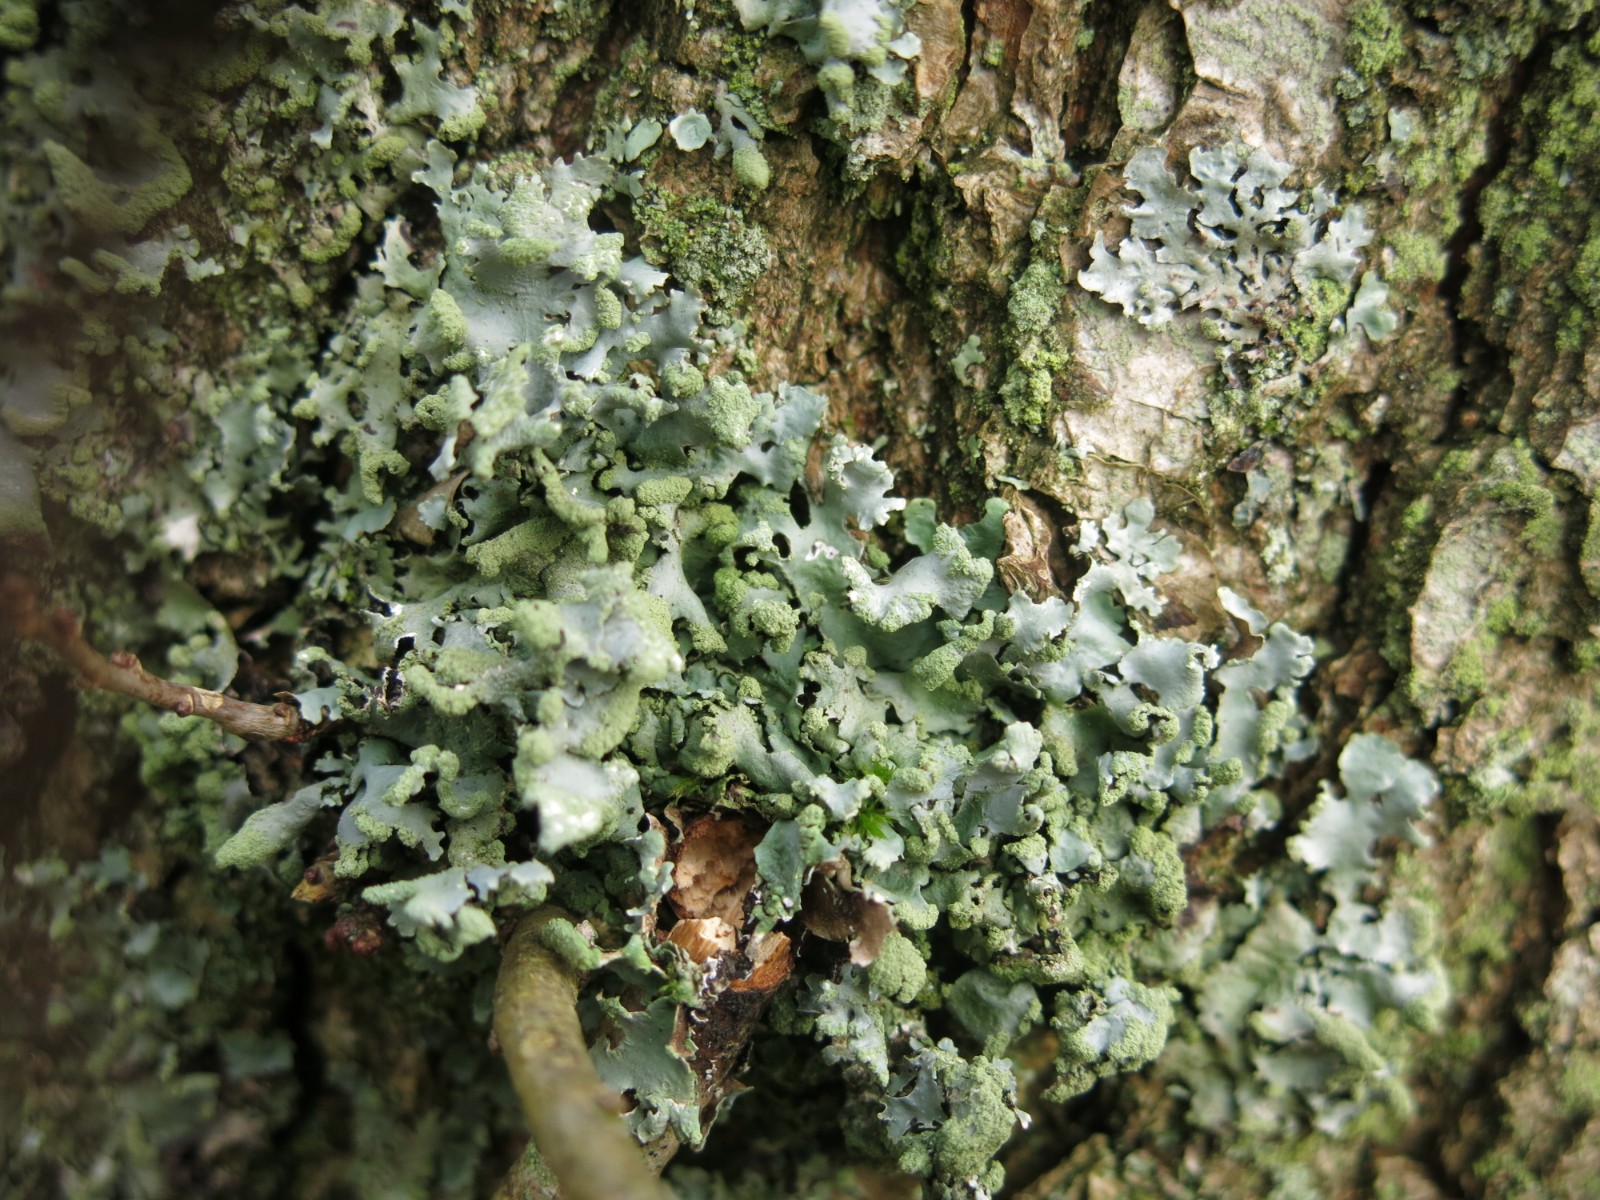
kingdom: Fungi
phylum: Ascomycota
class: Lecanoromycetes
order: Lecanorales
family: Parmeliaceae
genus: Hypotrachyna
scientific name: Hypotrachyna revoluta
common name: bleggrå skållav
